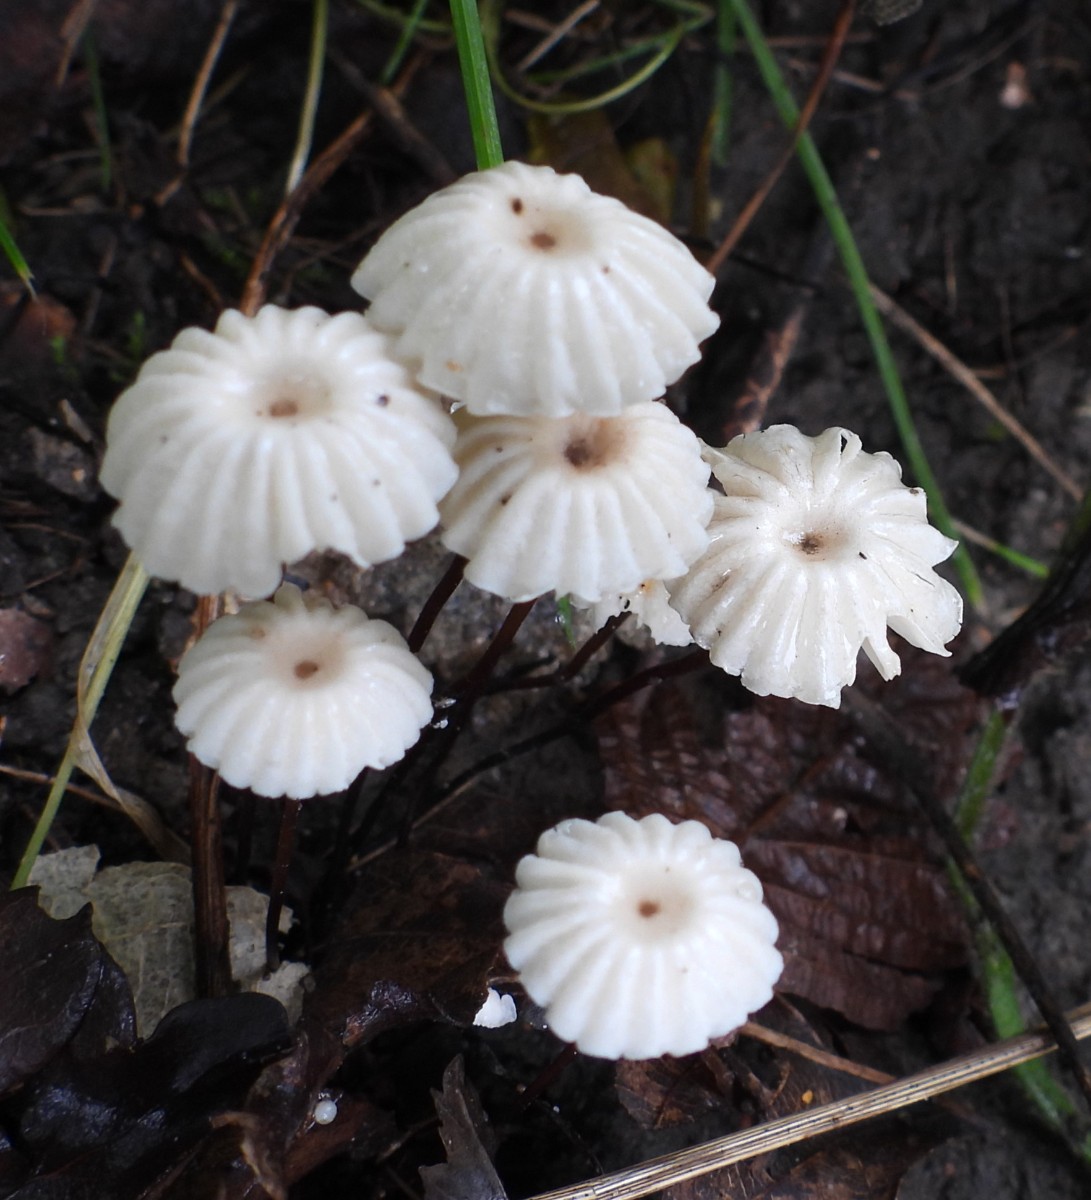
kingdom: Fungi
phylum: Basidiomycota
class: Agaricomycetes
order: Agaricales
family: Marasmiaceae
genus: Marasmius
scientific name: Marasmius rotula
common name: hjul-bruskhat
